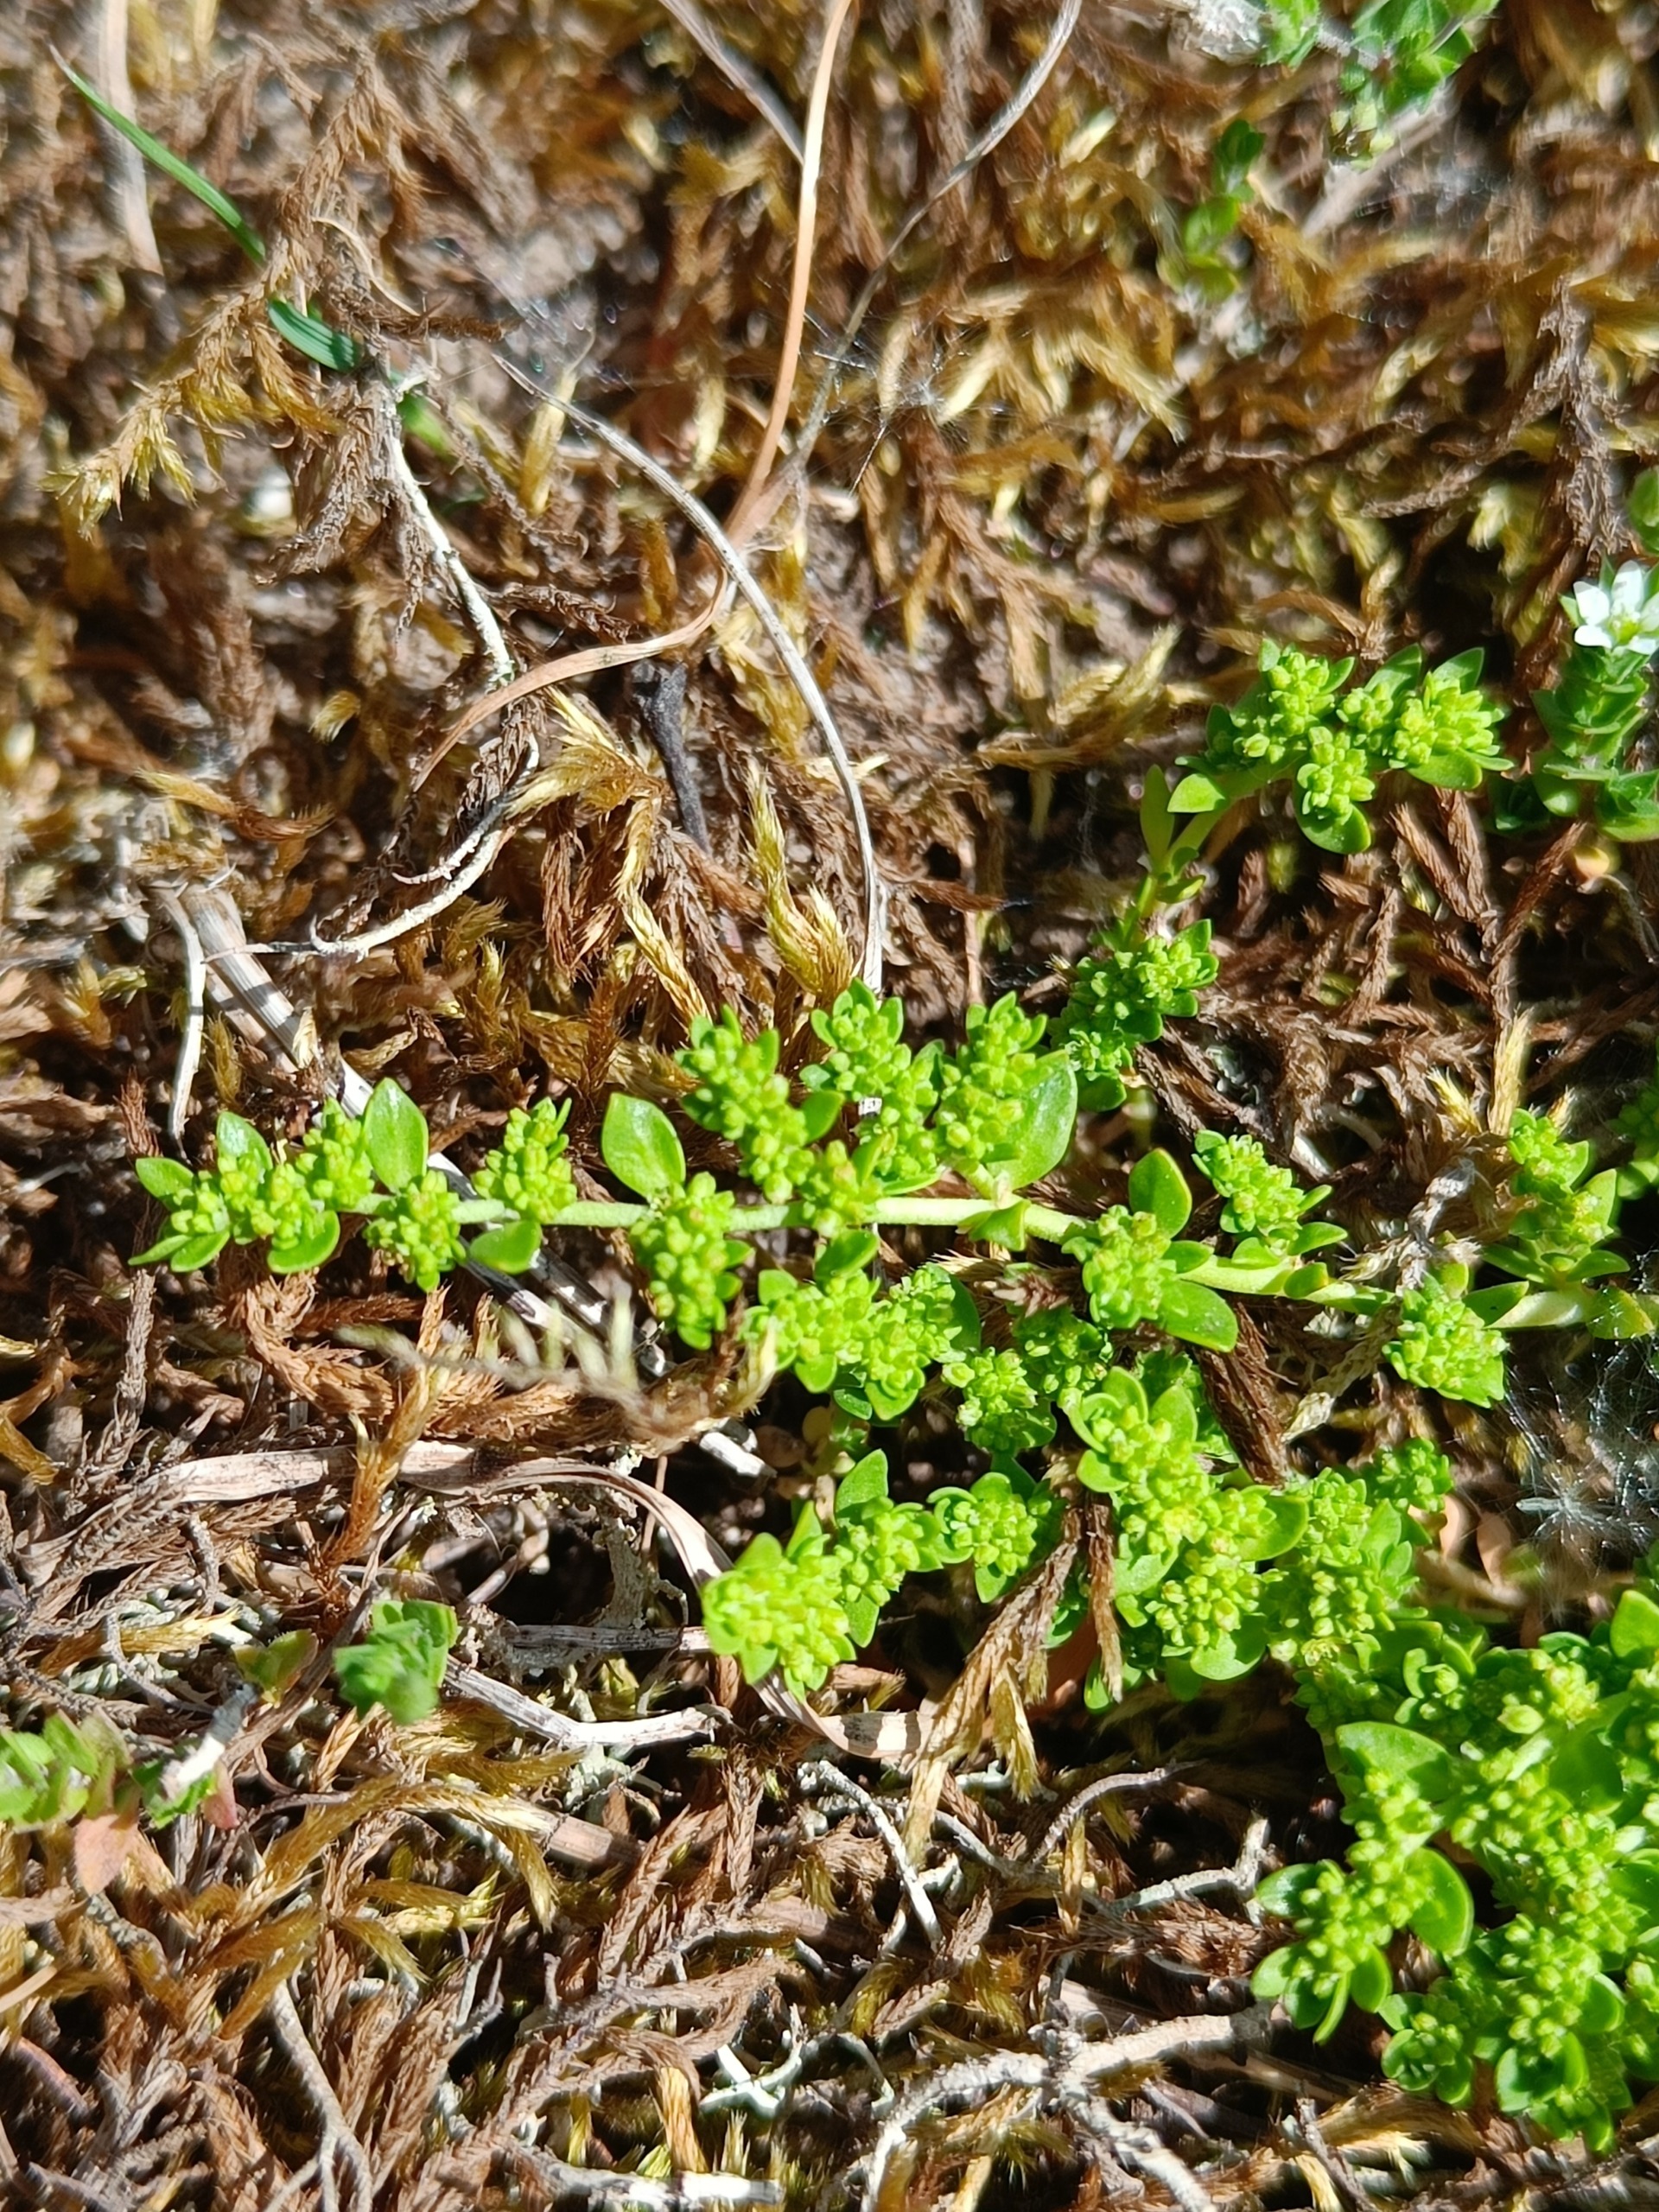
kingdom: Plantae
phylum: Tracheophyta
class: Magnoliopsida
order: Caryophyllales
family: Caryophyllaceae
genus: Herniaria
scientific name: Herniaria glabra
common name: Brudurt
